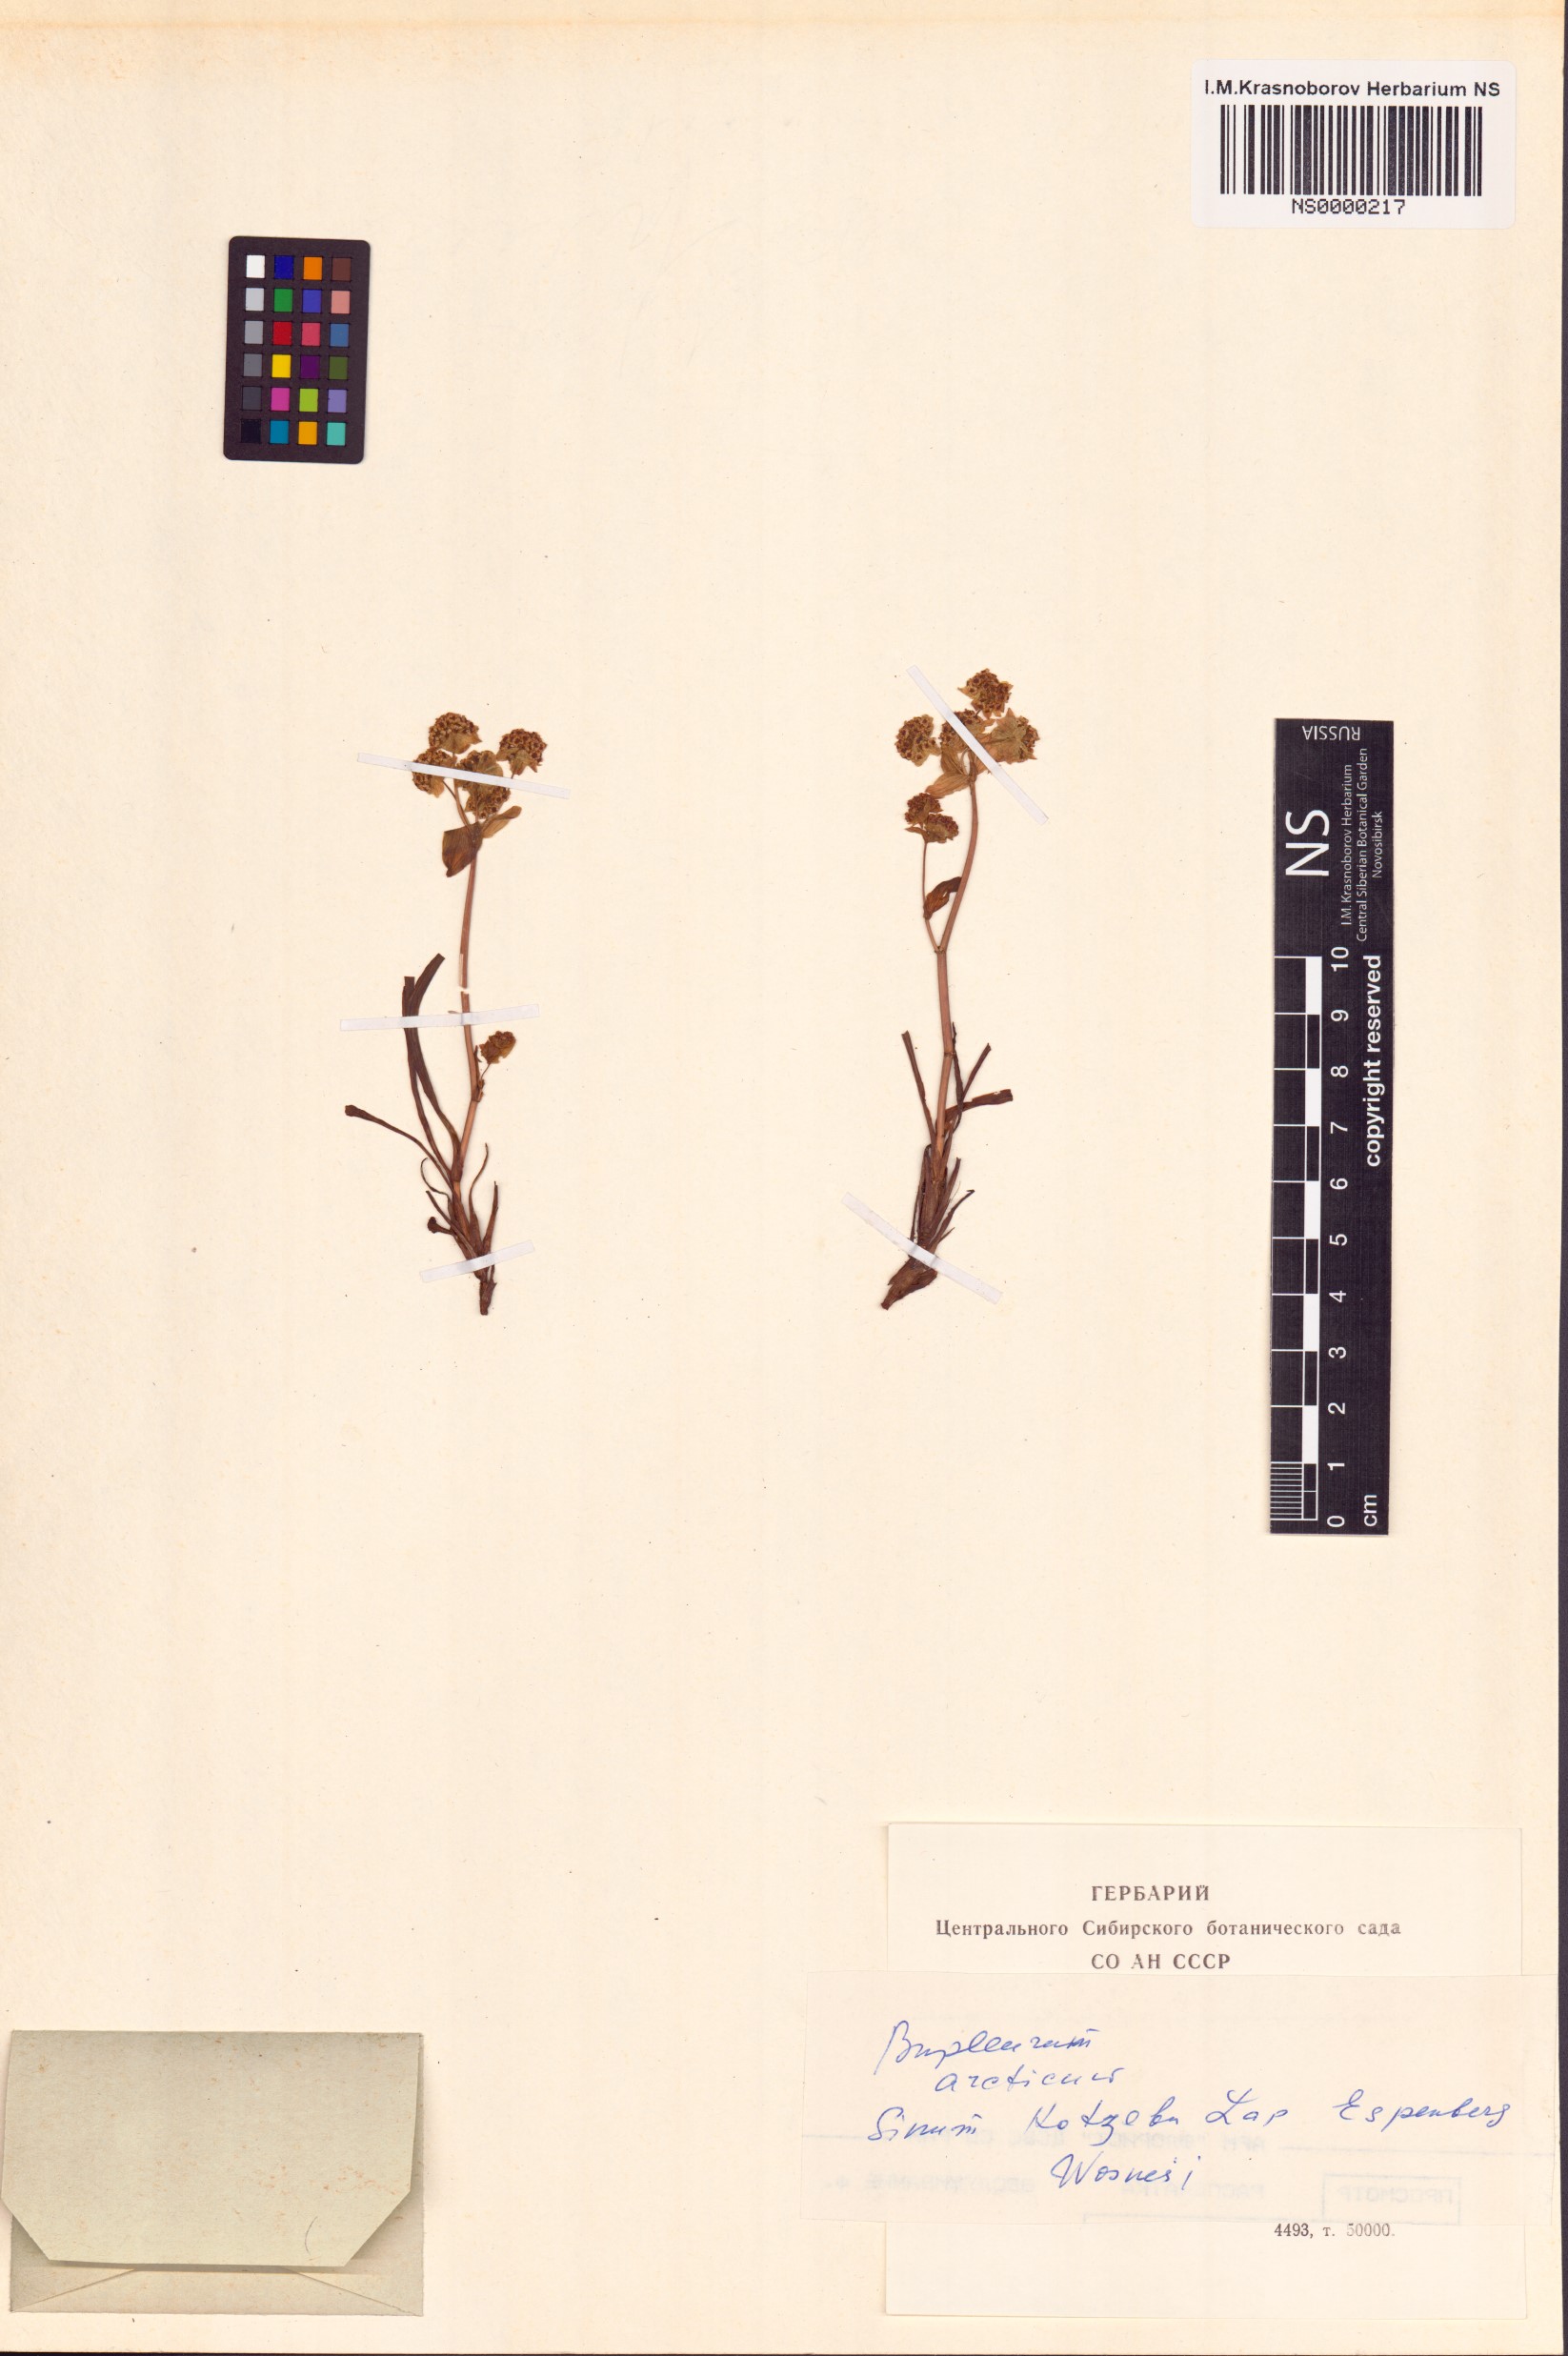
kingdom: Plantae
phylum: Tracheophyta
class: Magnoliopsida
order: Apiales
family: Apiaceae
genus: Bupleurum
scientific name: Bupleurum americanum
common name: American thoroughwax
